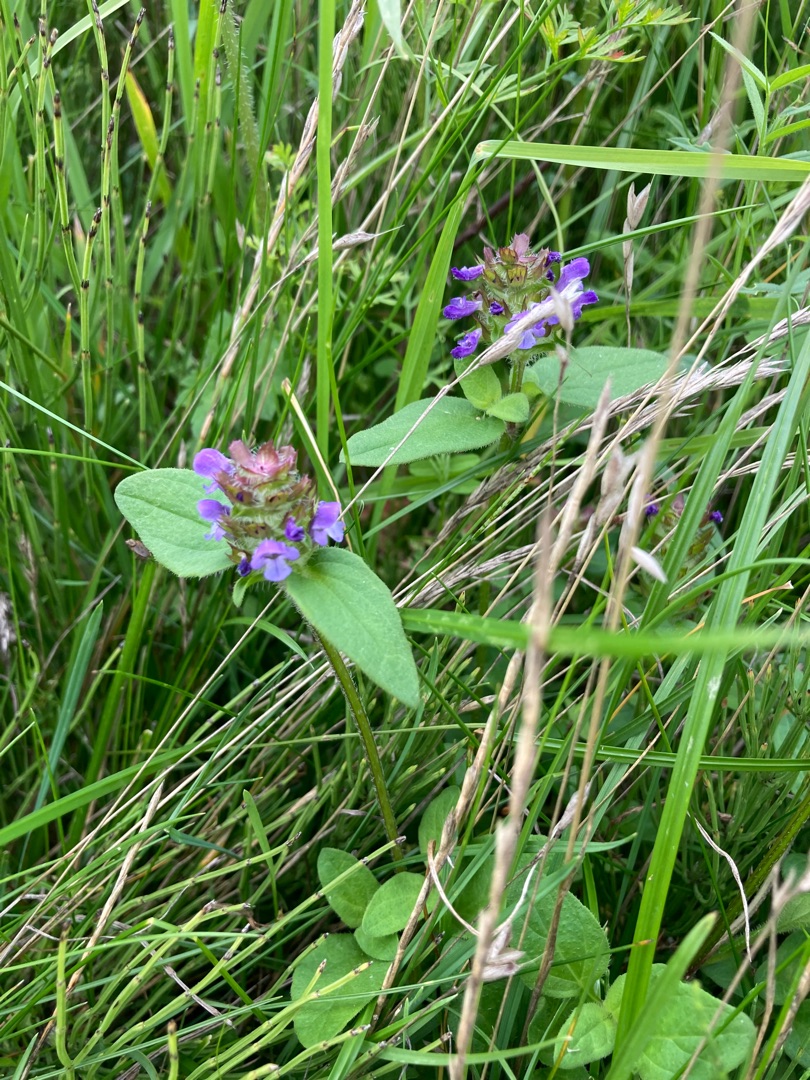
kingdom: Plantae
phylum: Tracheophyta
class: Magnoliopsida
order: Lamiales
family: Lamiaceae
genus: Prunella
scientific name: Prunella vulgaris
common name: Almindelig brunelle
